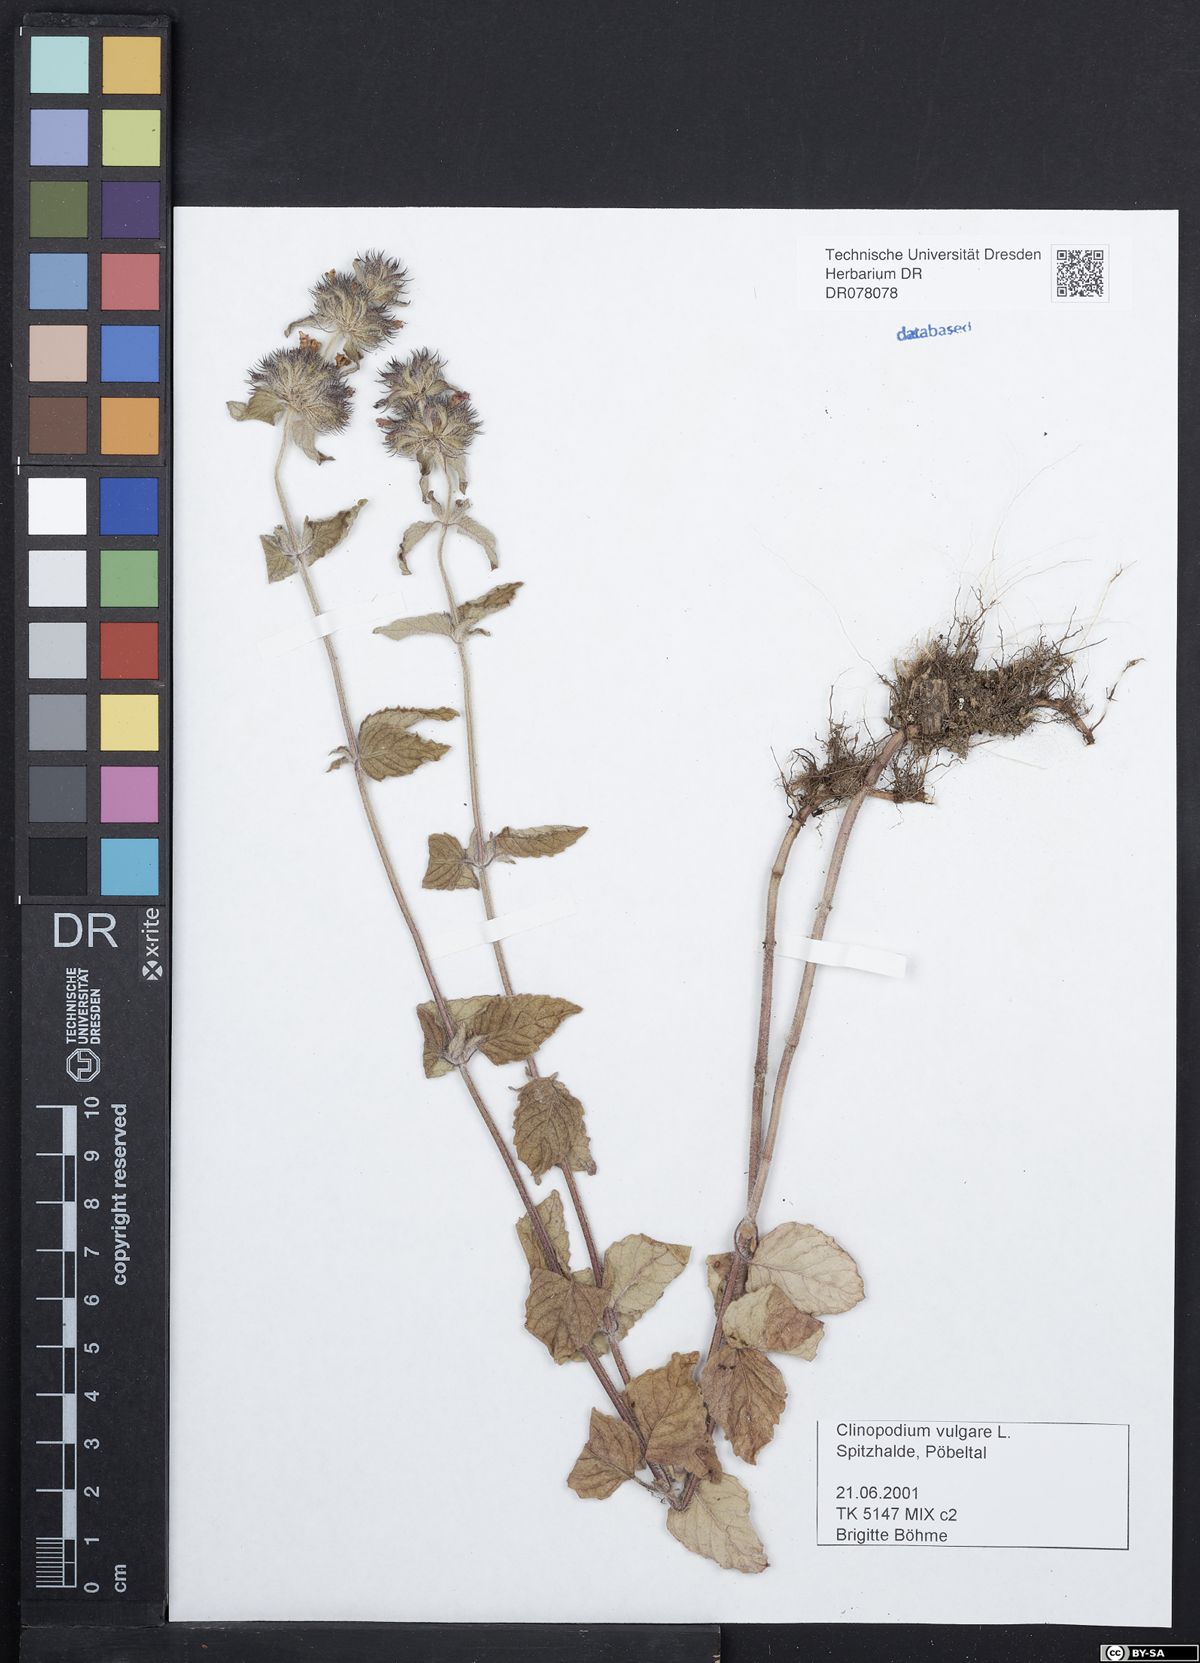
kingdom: Plantae
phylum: Tracheophyta
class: Magnoliopsida
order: Lamiales
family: Lamiaceae
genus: Clinopodium
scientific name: Clinopodium vulgare
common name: Wild basil
